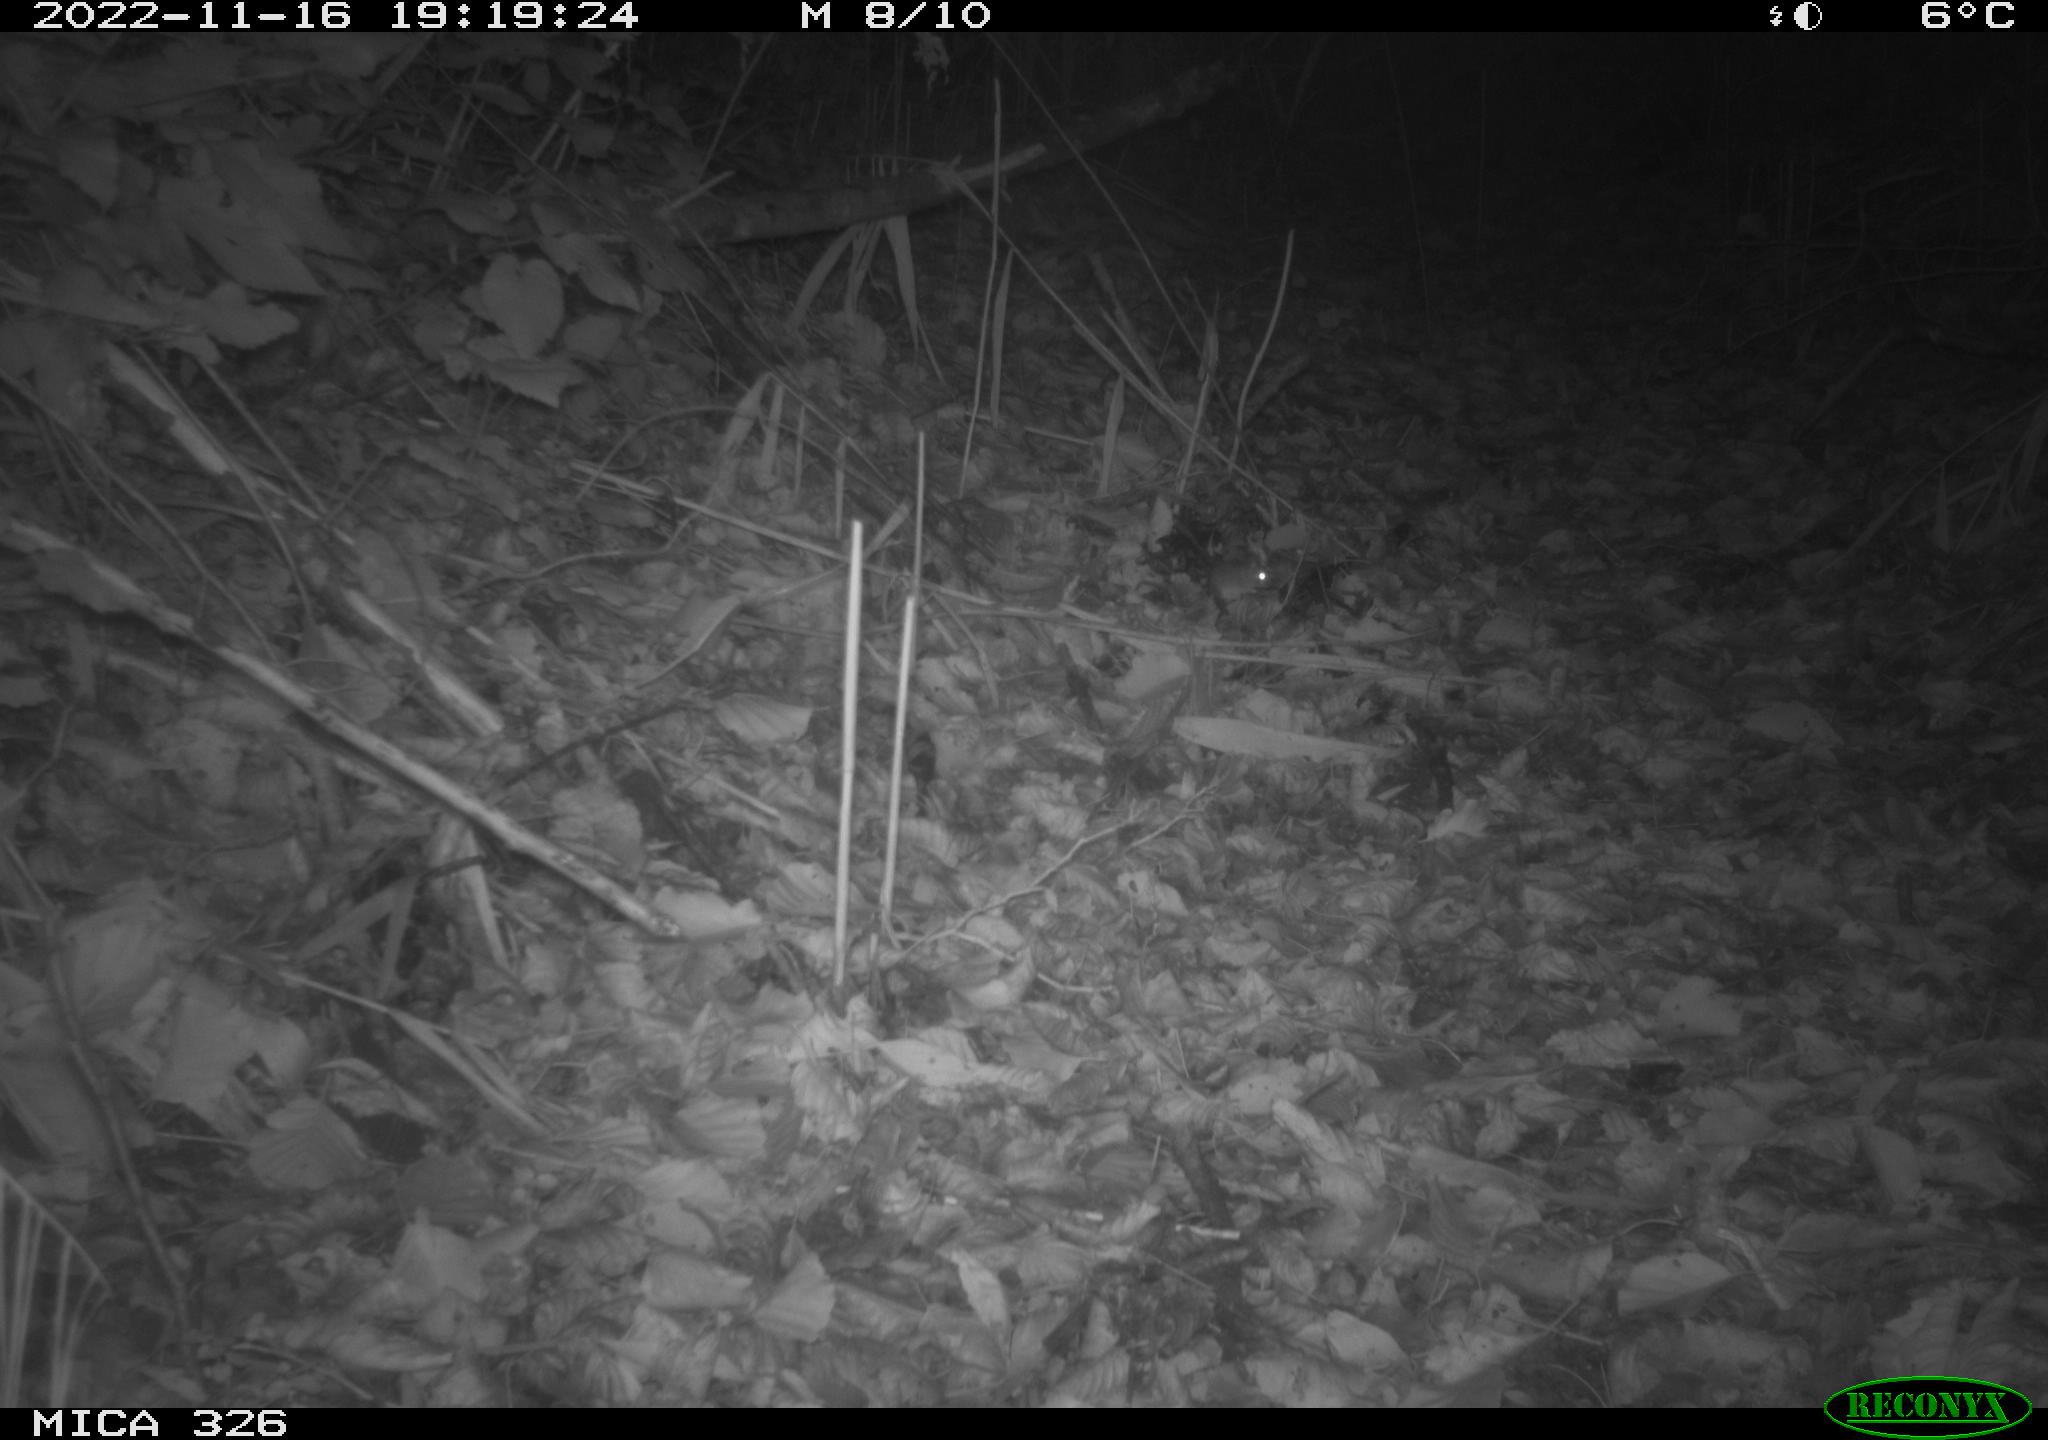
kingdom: Animalia
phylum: Chordata
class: Mammalia
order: Rodentia
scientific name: Rodentia
